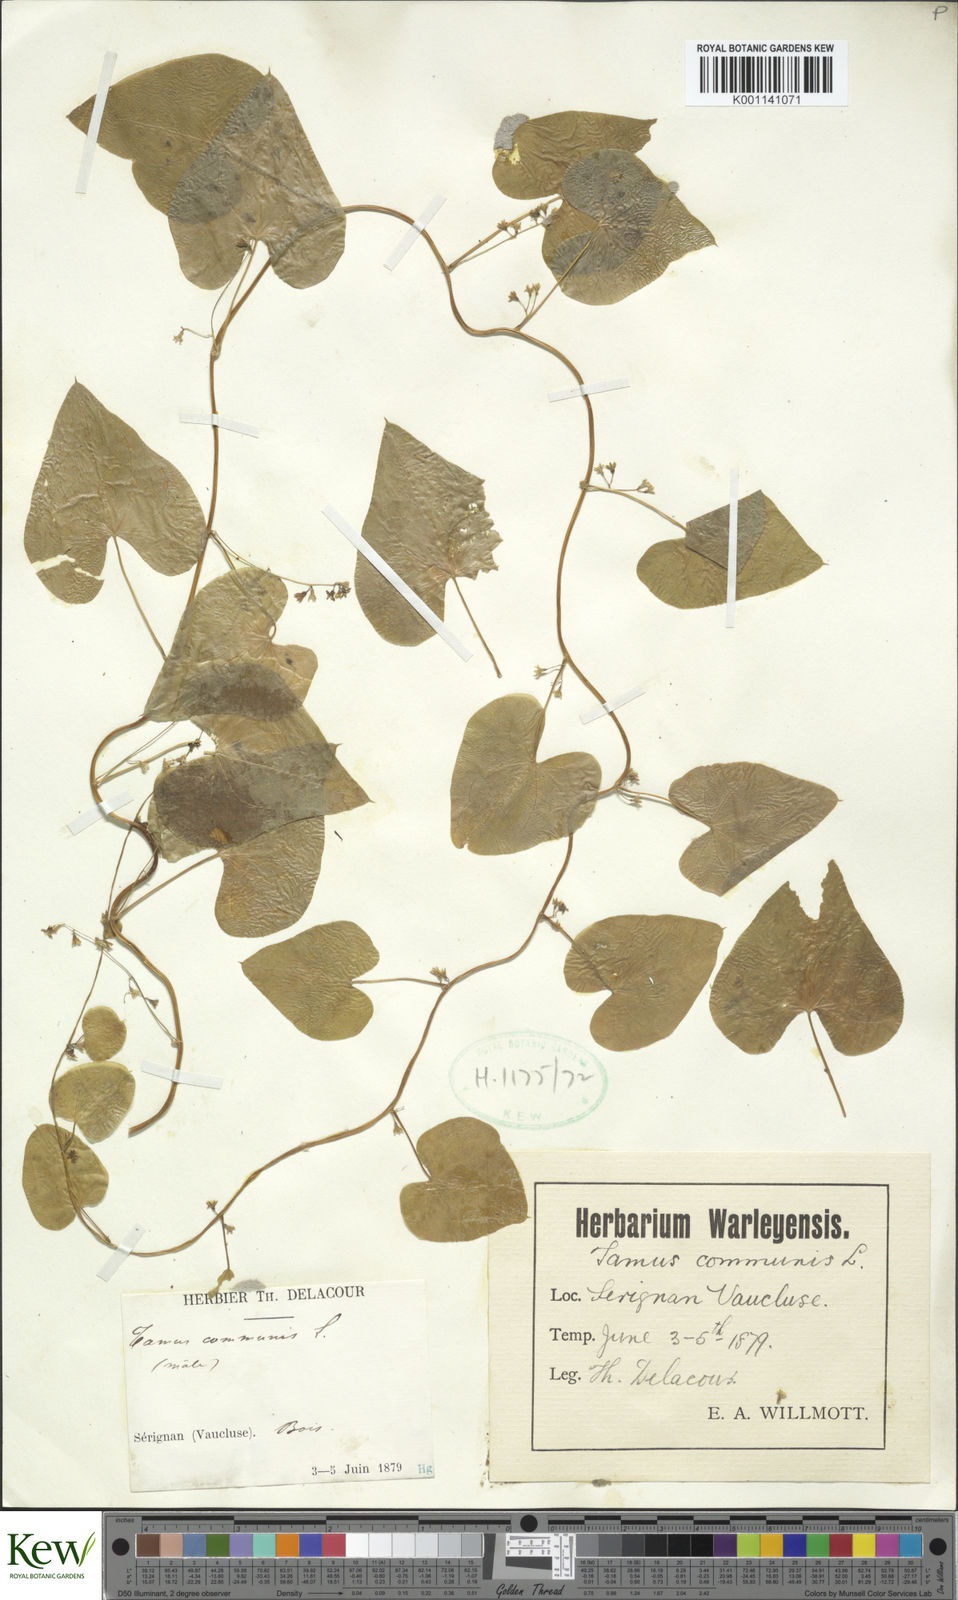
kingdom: Plantae
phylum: Tracheophyta
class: Liliopsida
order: Dioscoreales
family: Dioscoreaceae
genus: Dioscorea
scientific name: Dioscorea communis
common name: Black-bindweed
